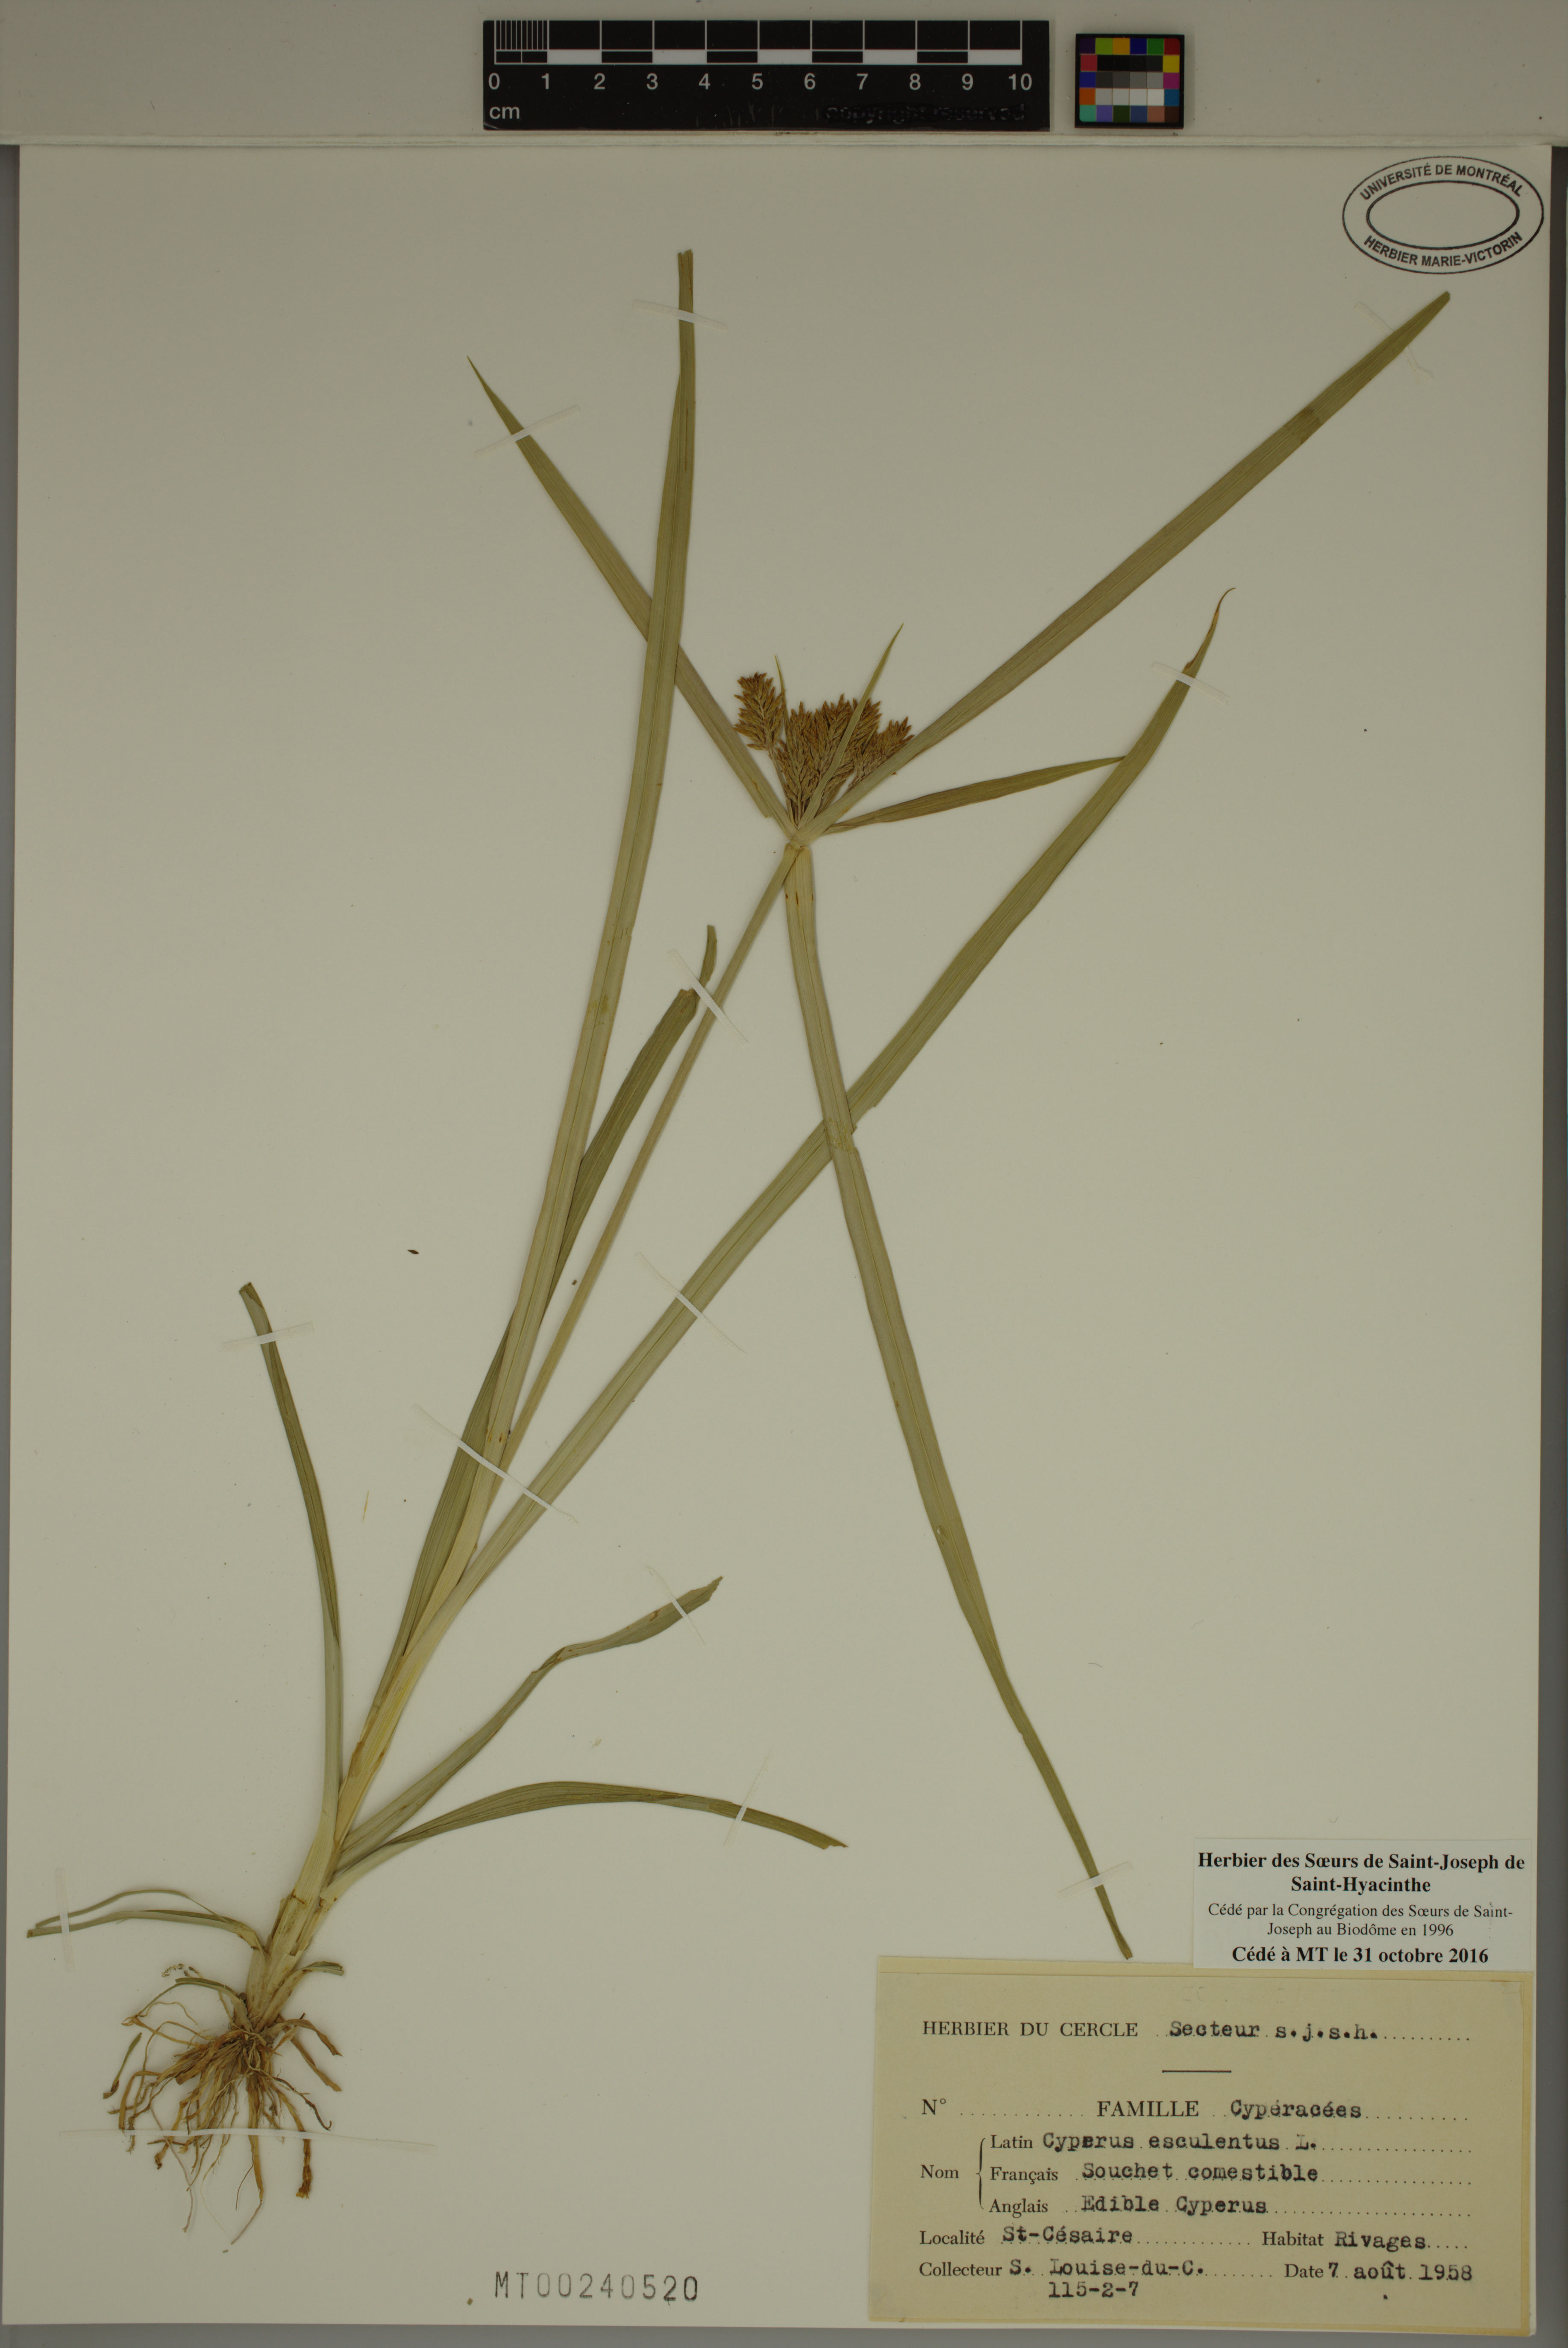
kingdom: Plantae
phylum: Tracheophyta
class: Liliopsida
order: Poales
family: Cyperaceae
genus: Cyperus
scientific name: Cyperus esculentus
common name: Yellow nutsedge
